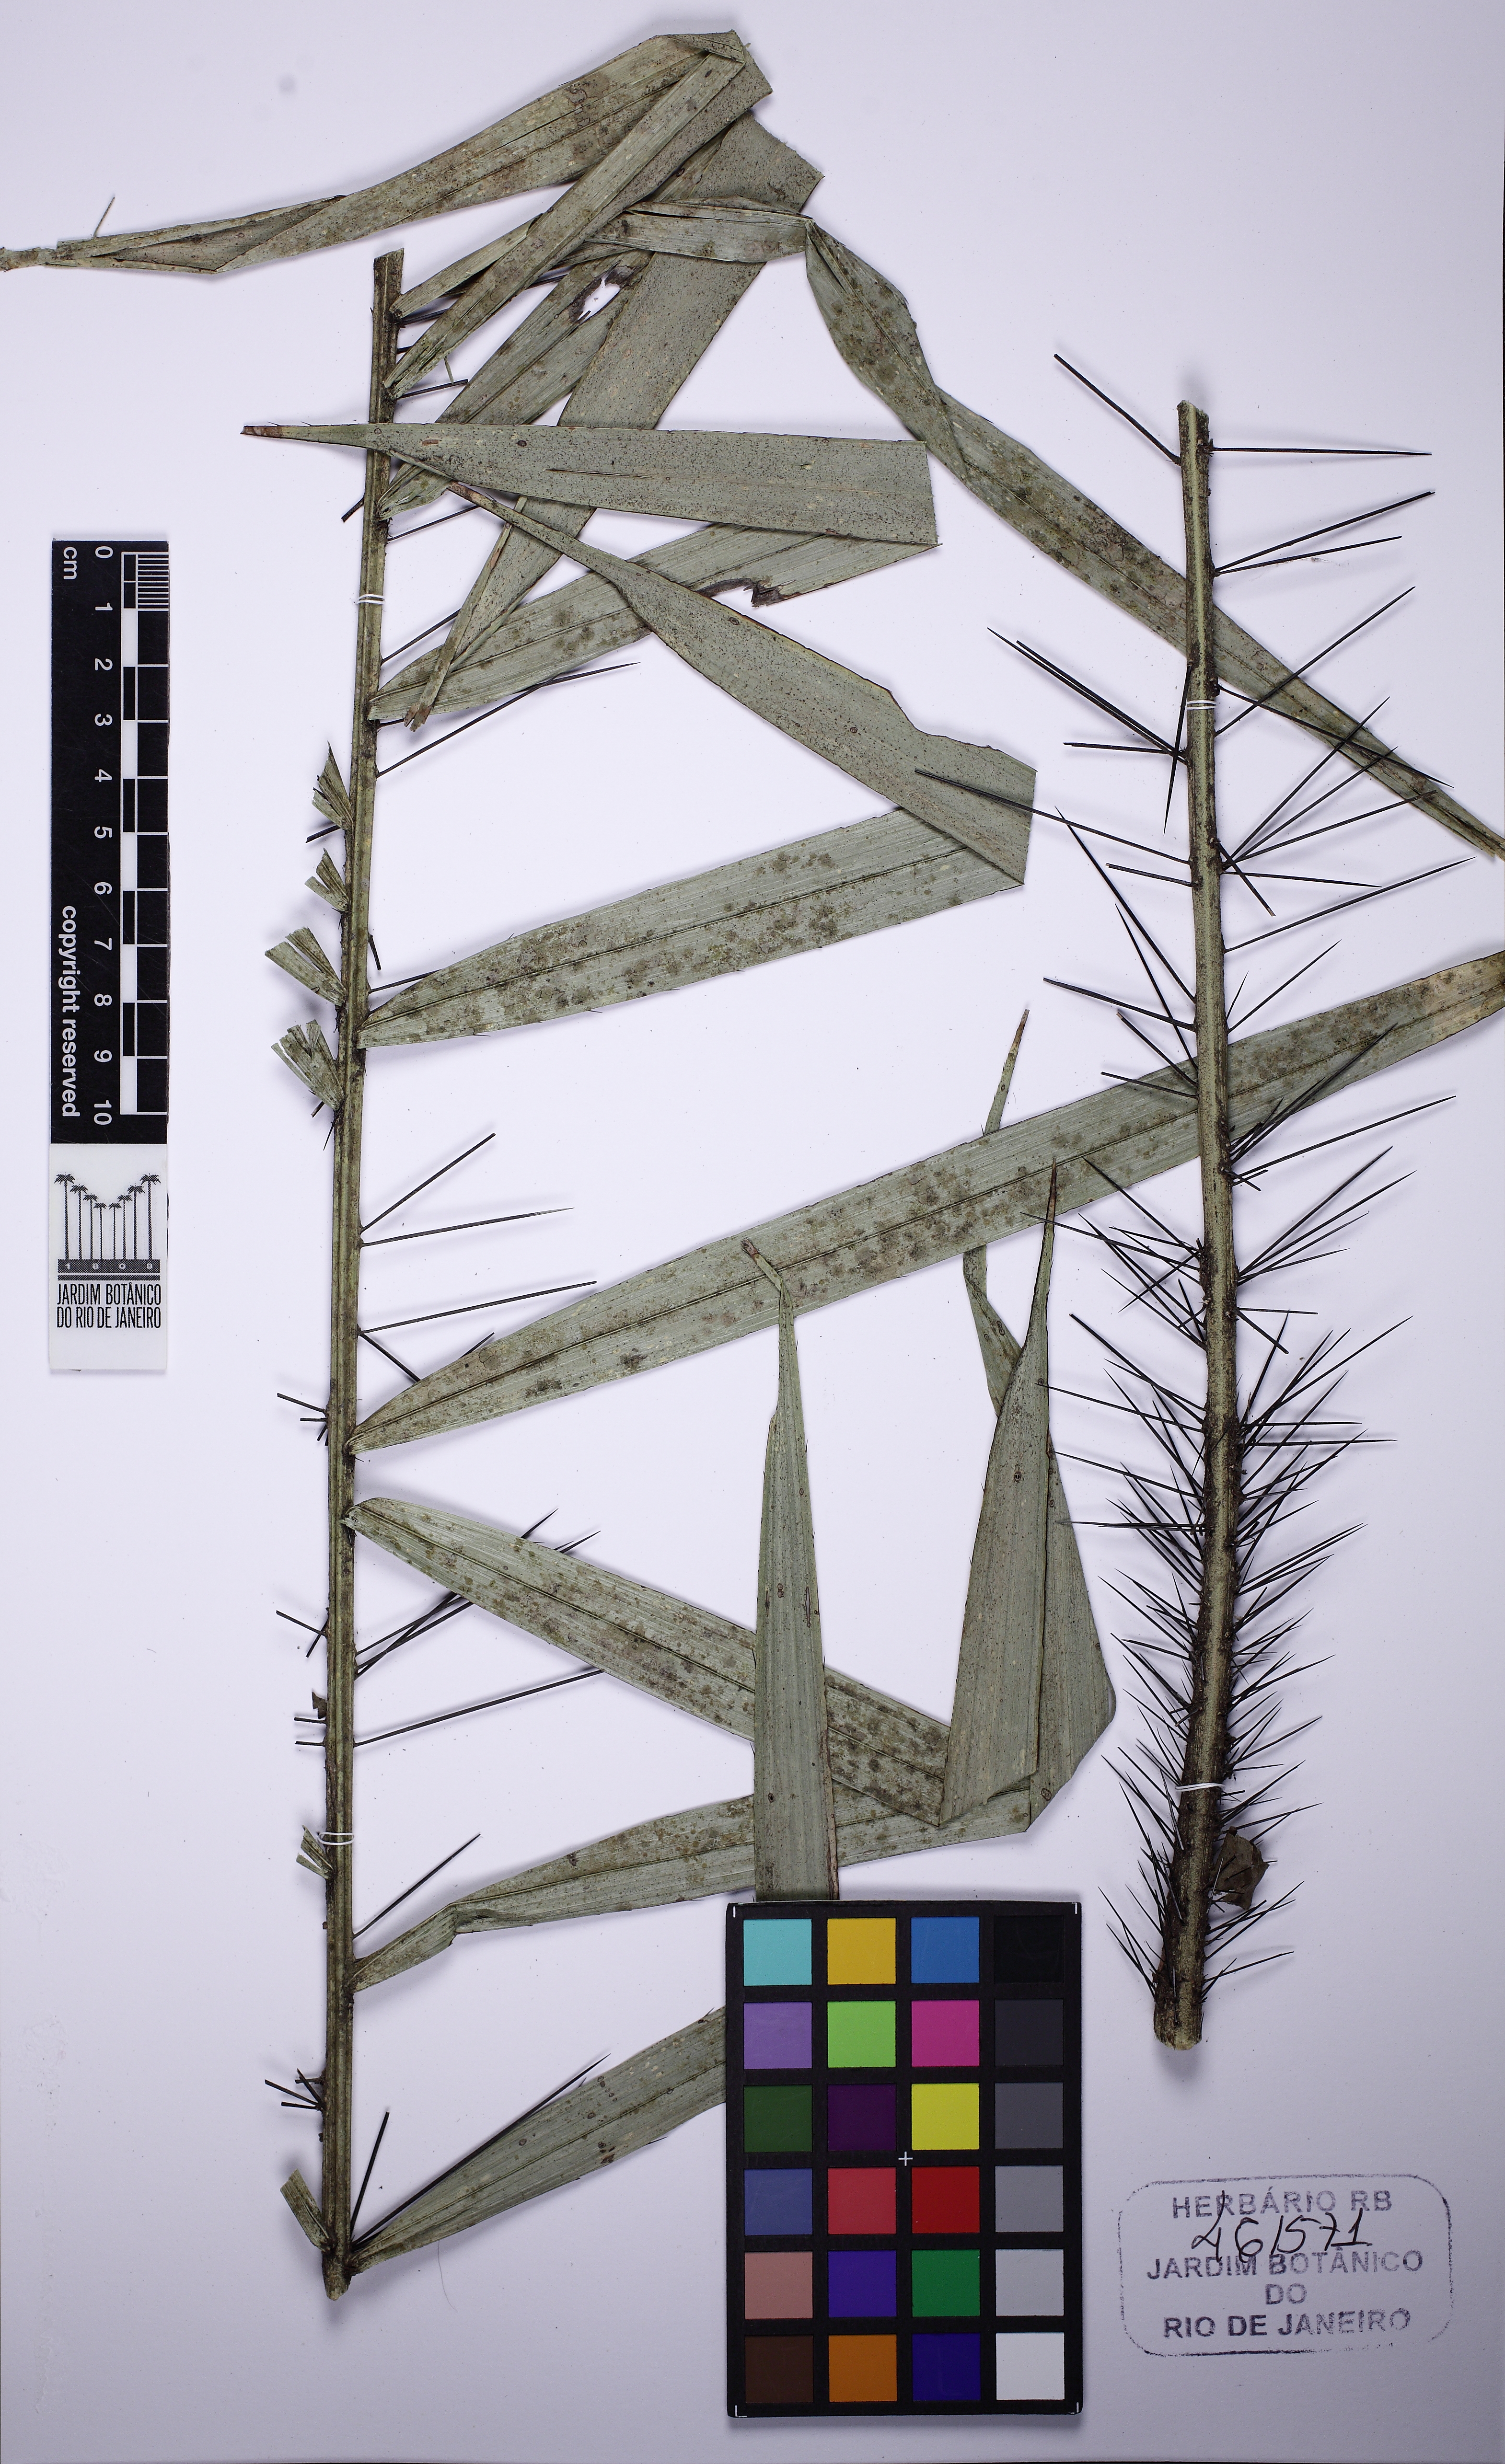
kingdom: Plantae
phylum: Tracheophyta
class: Liliopsida
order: Arecales
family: Arecaceae
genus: Bactris
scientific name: Bactris setosa
